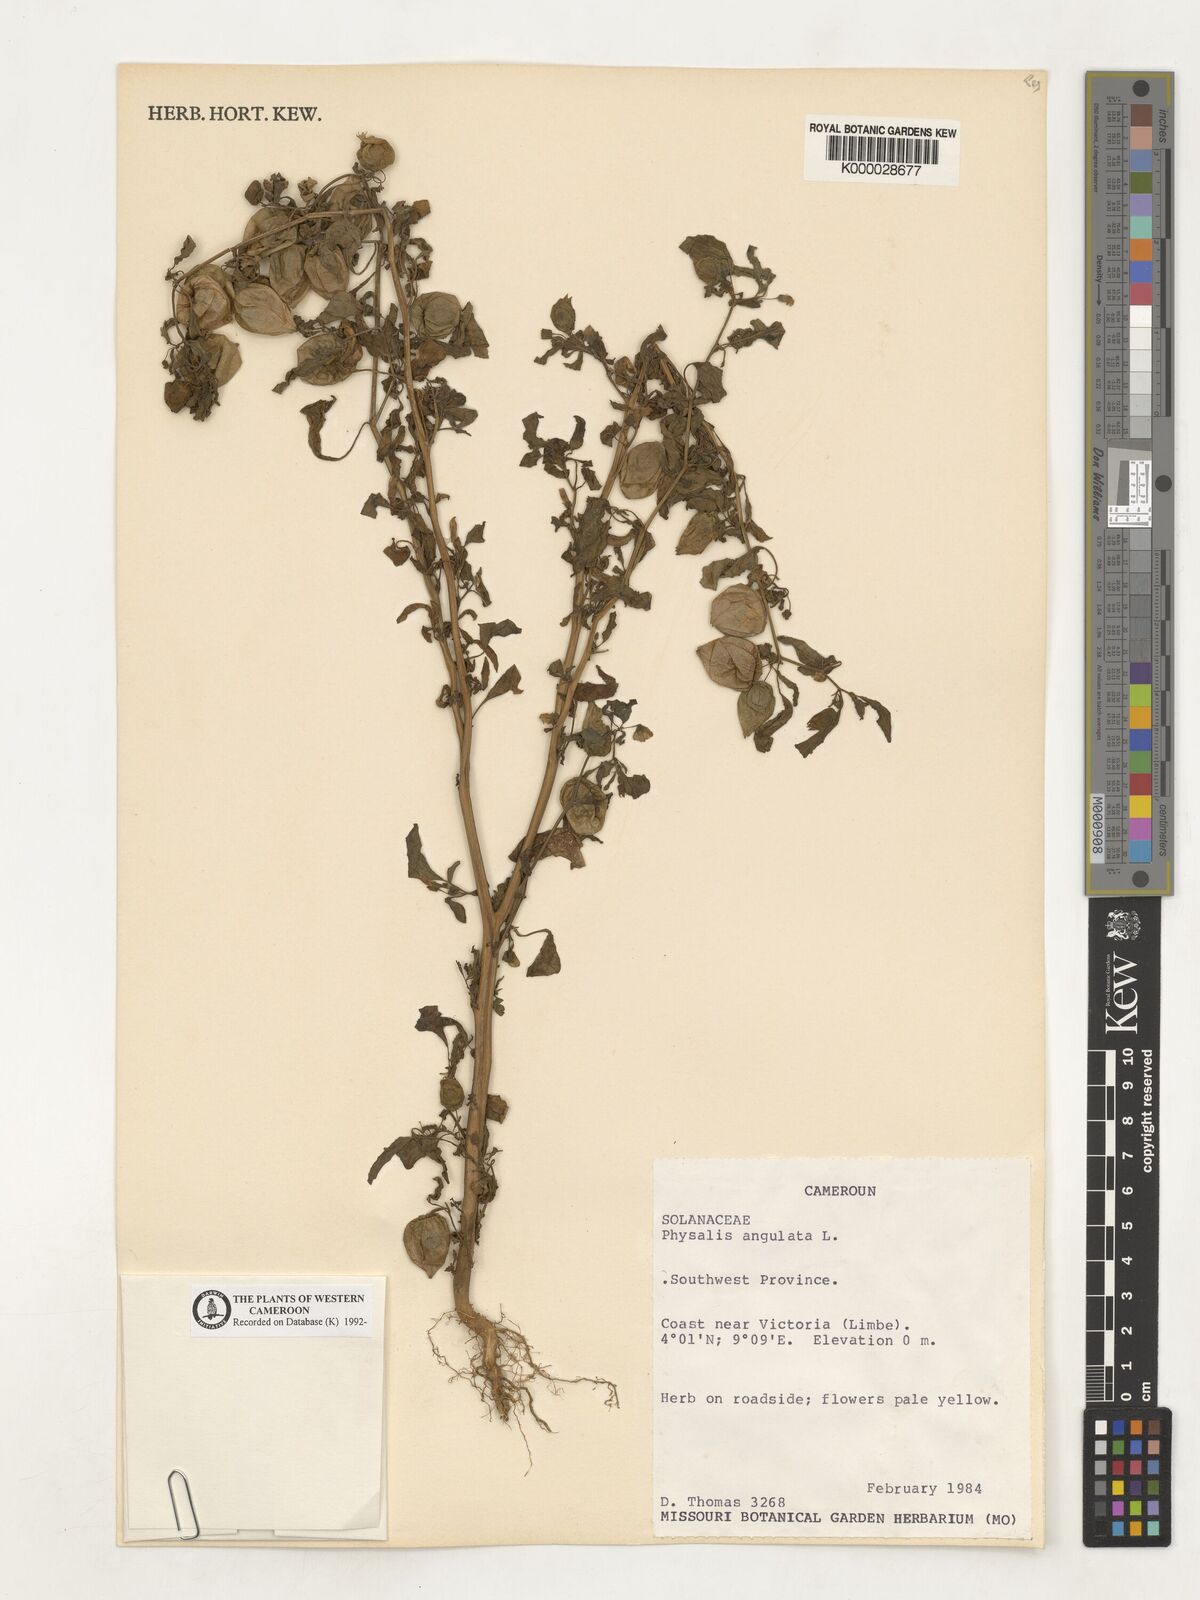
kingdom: Plantae
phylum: Tracheophyta
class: Magnoliopsida
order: Solanales
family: Solanaceae
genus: Physalis
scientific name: Physalis angulata
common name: Angular winter-cherry
